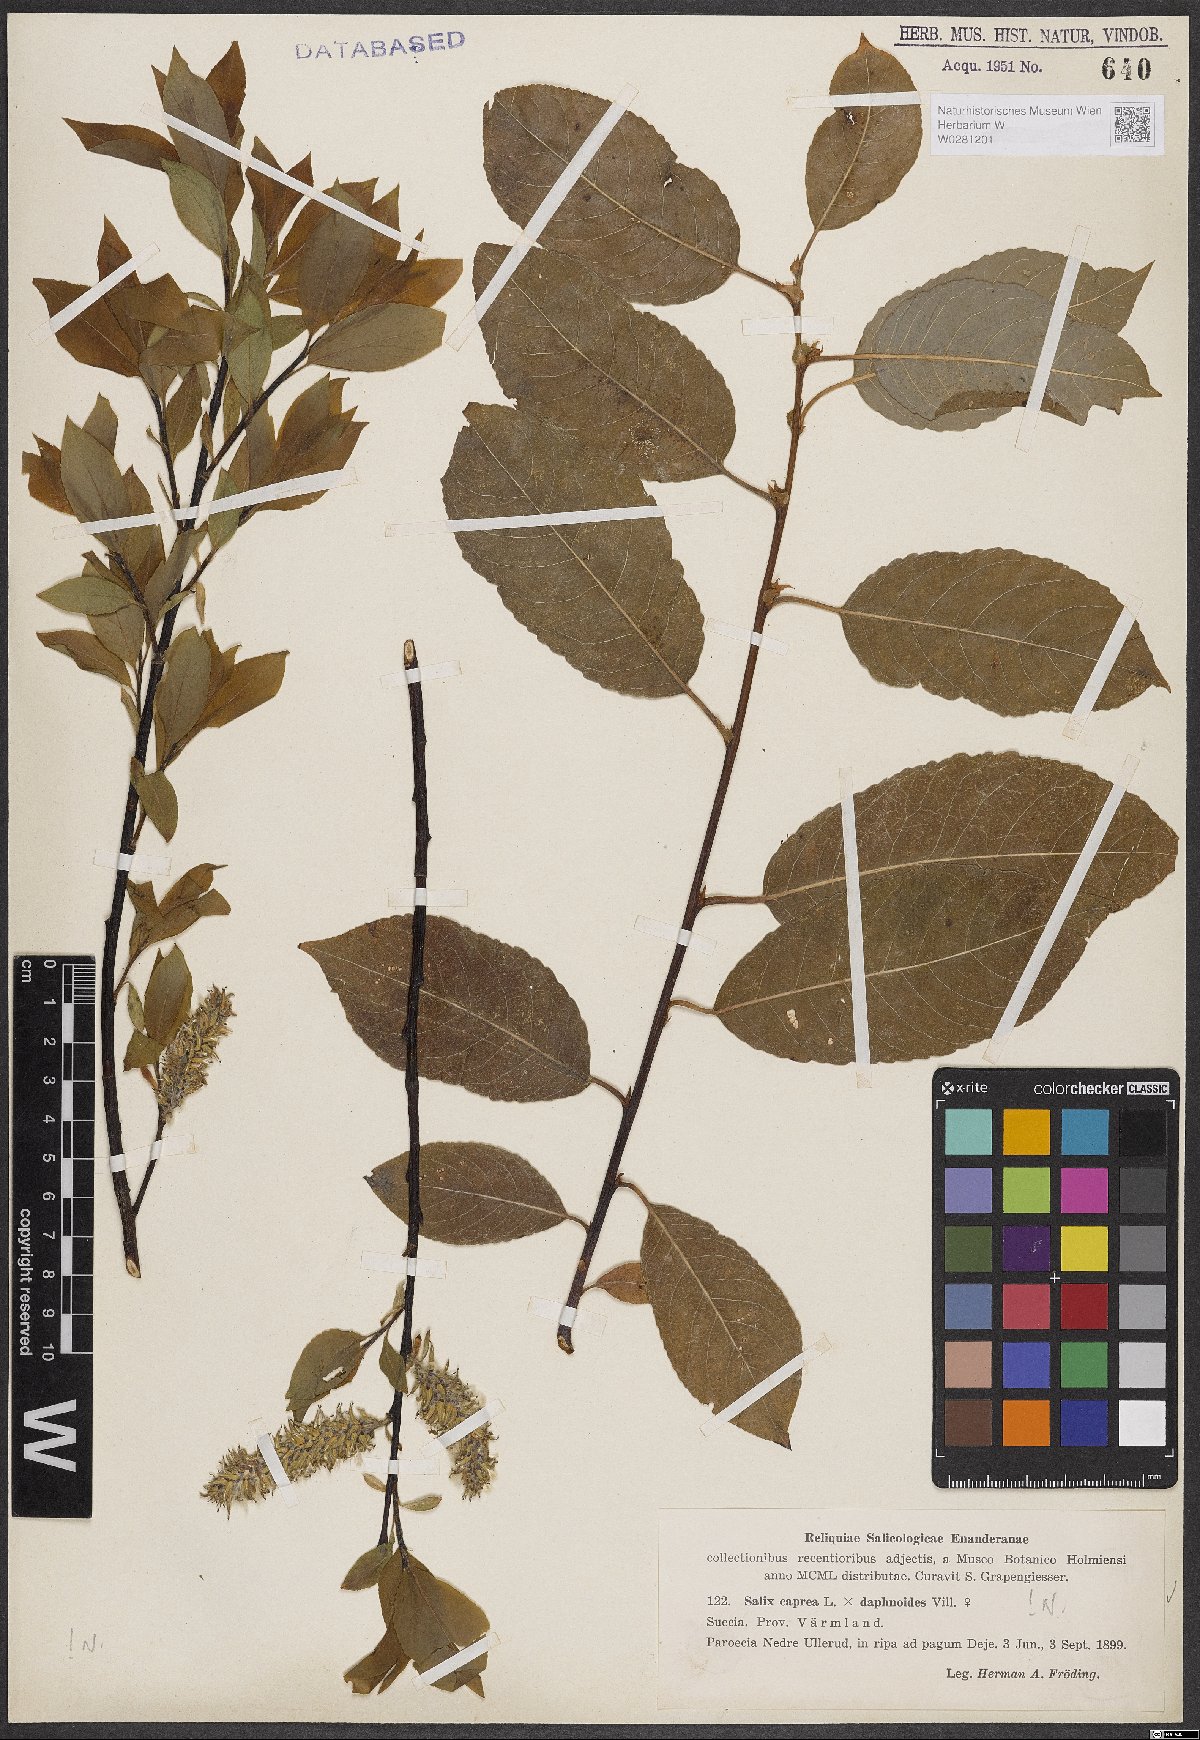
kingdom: Plantae
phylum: Tracheophyta
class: Magnoliopsida
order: Malpighiales
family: Salicaceae
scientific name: Salicaceae
